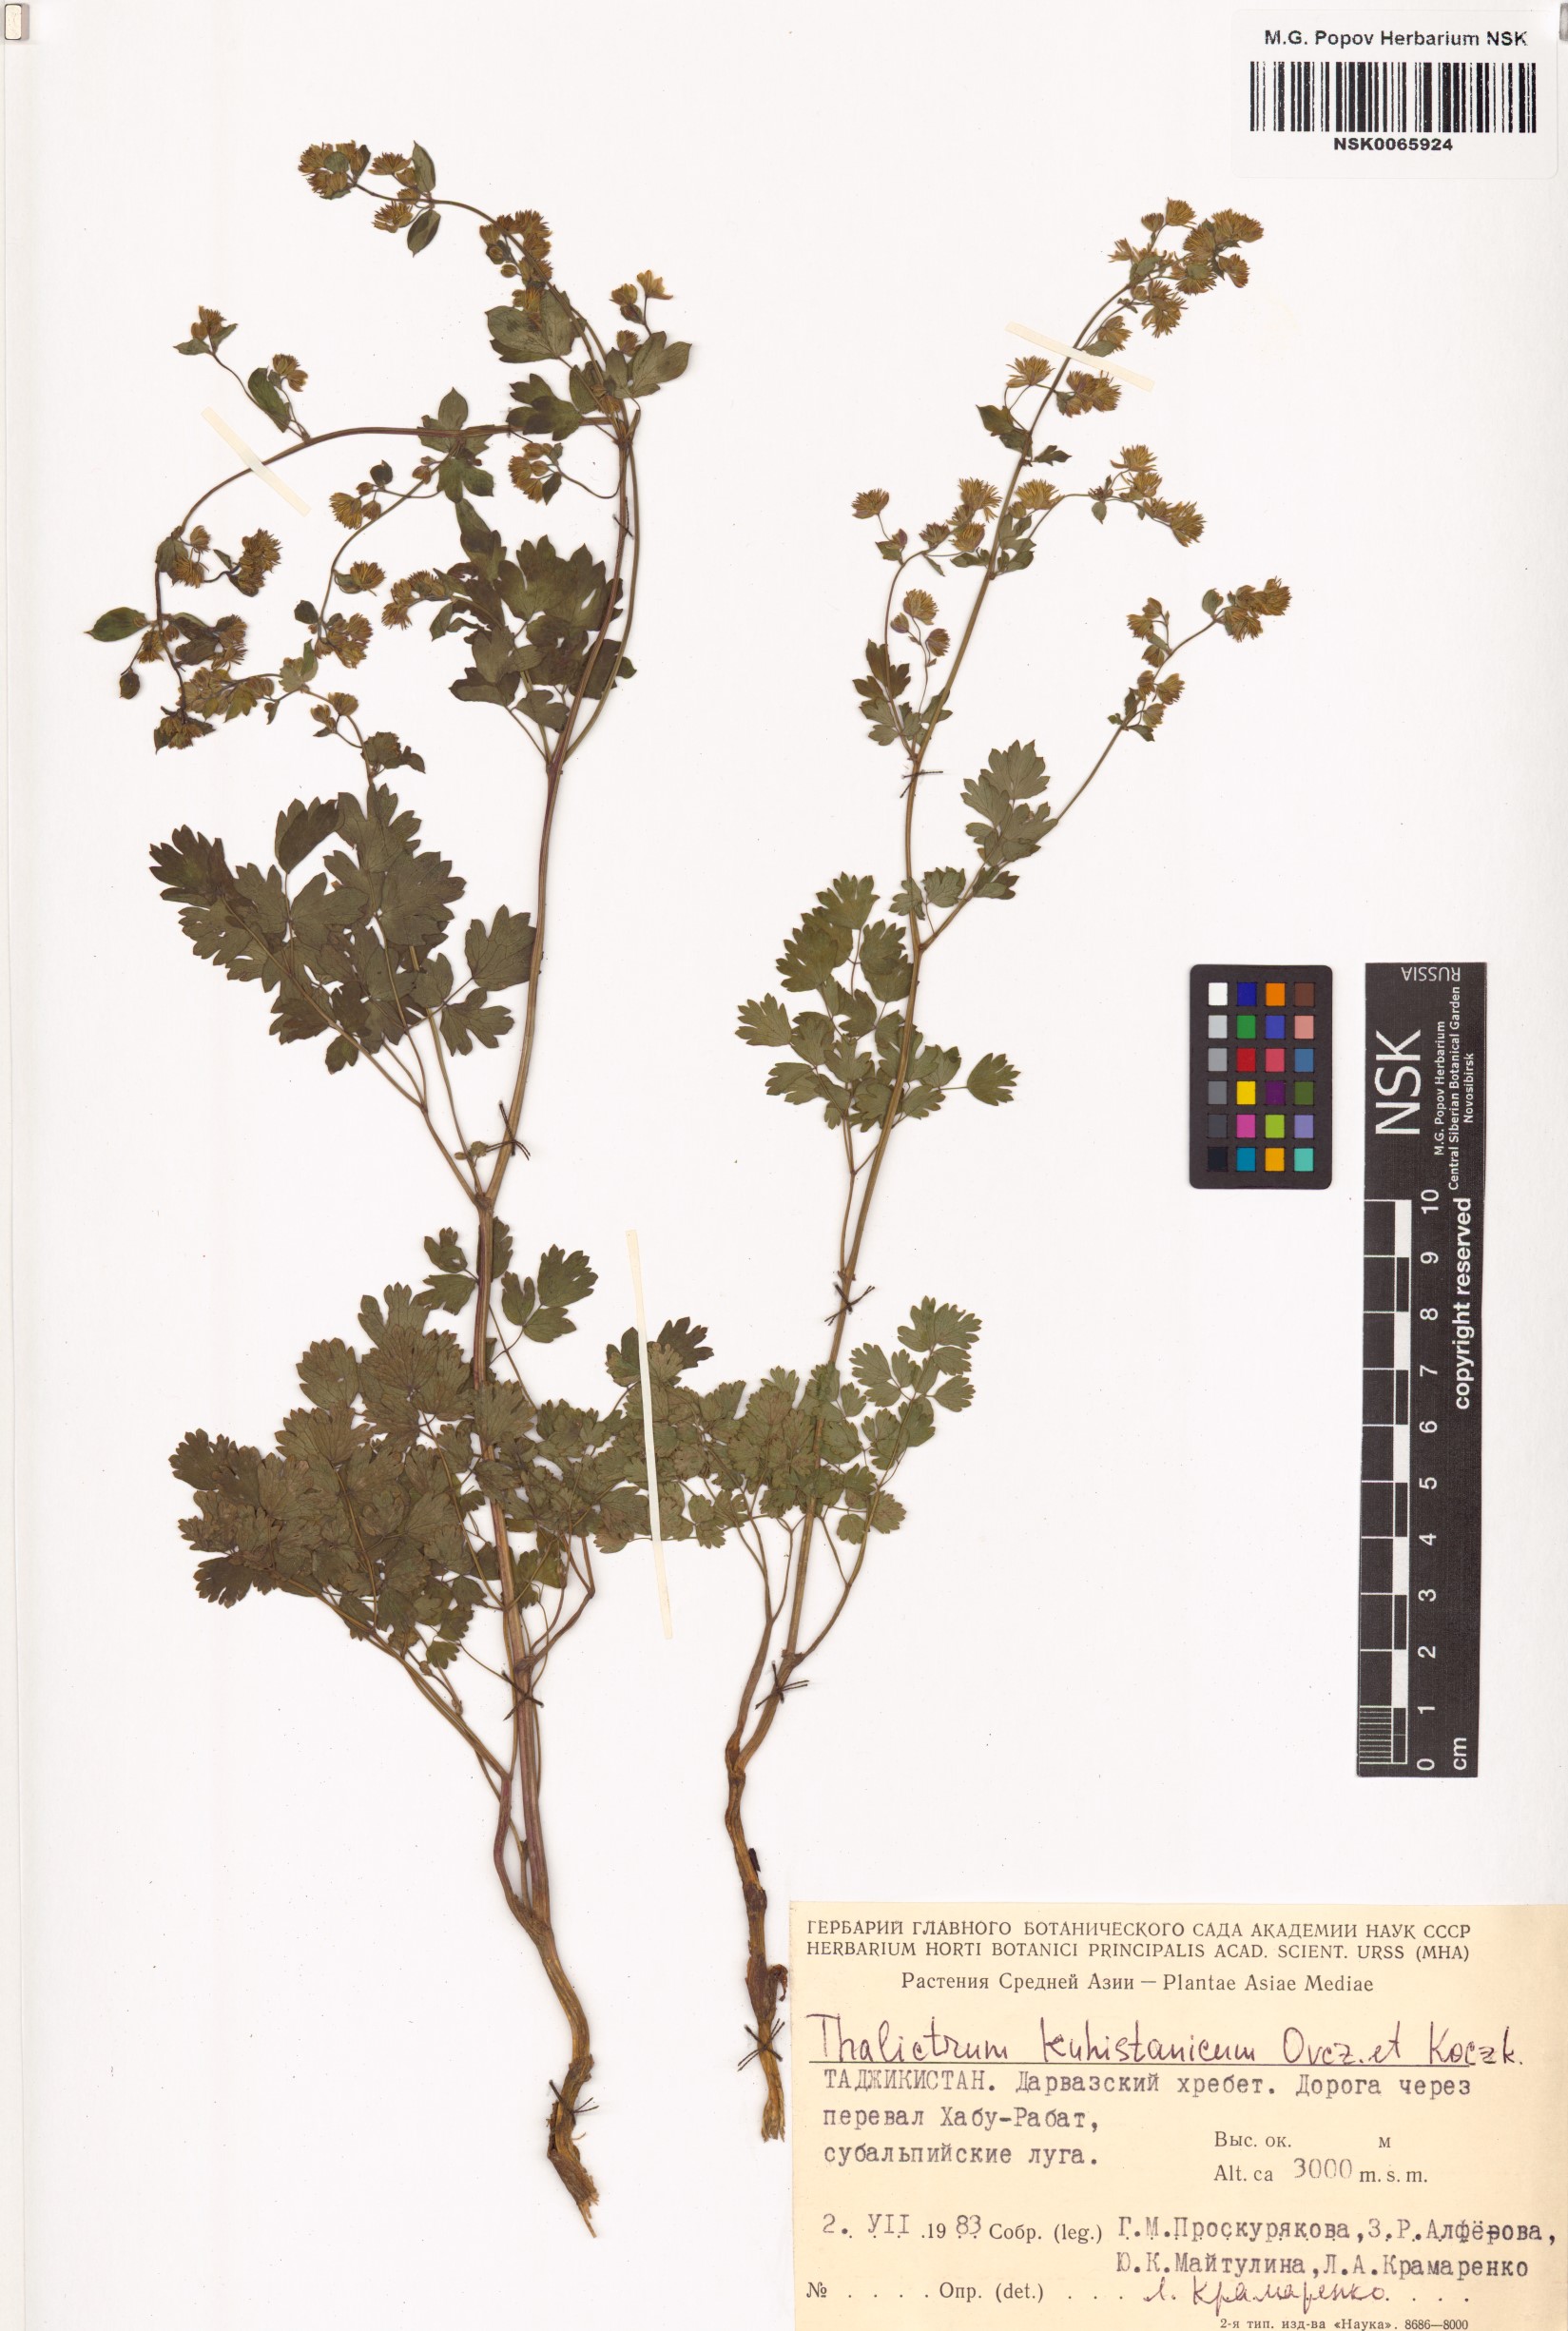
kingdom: Plantae
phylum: Tracheophyta
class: Magnoliopsida
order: Ranunculales
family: Ranunculaceae
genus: Thalictrum
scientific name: Thalictrum minus
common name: Lesser meadow-rue
